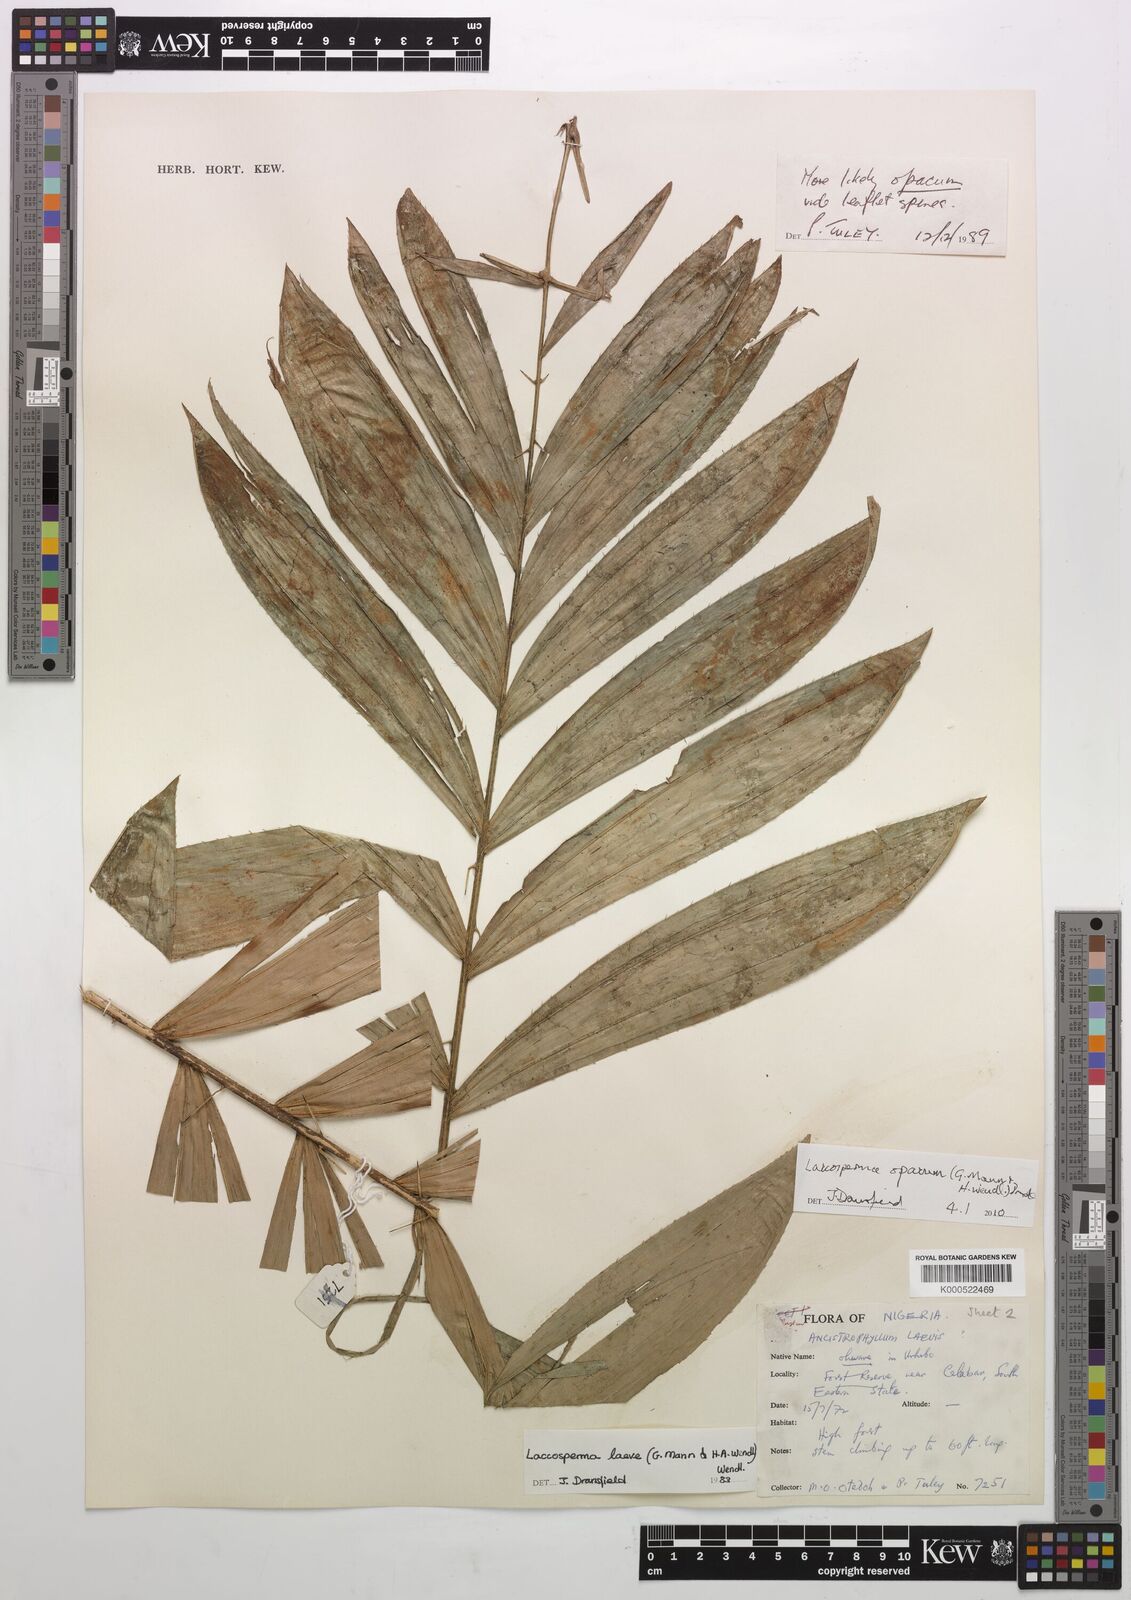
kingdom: Plantae
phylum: Tracheophyta
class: Liliopsida
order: Arecales
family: Arecaceae
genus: Laccosperma
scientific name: Laccosperma opacum
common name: Rattan
